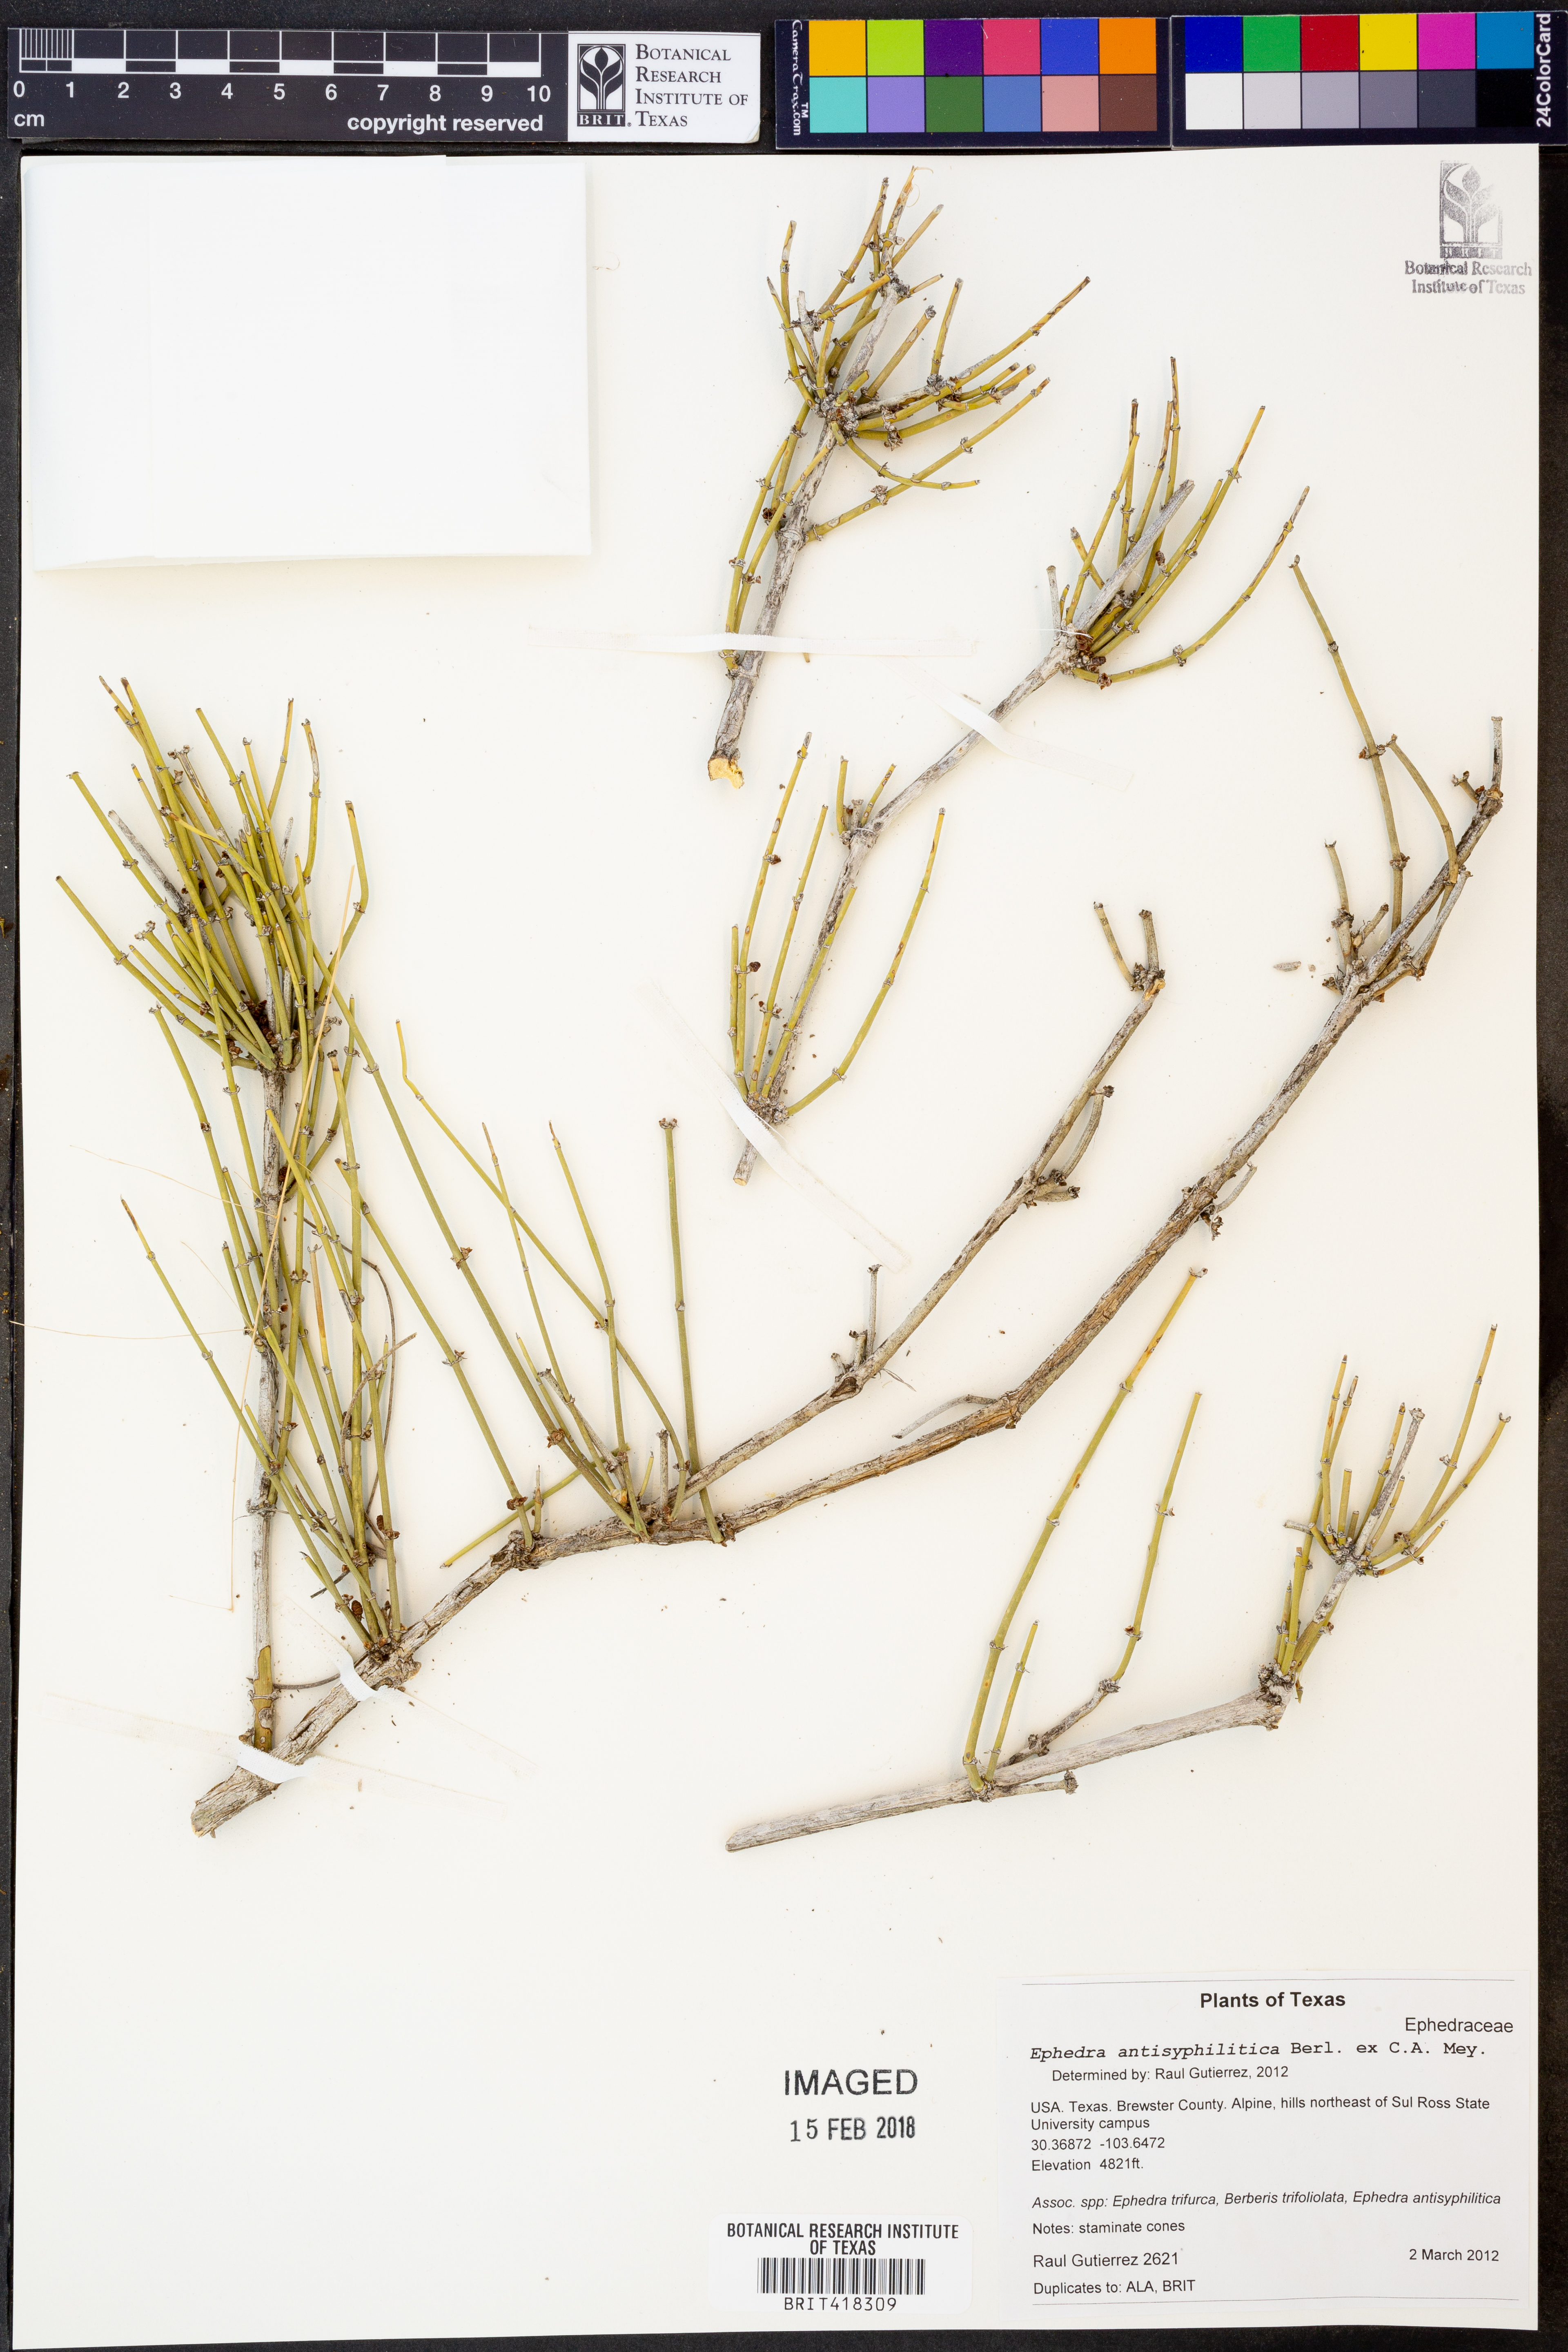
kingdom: Plantae
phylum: Tracheophyta
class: Gnetopsida
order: Ephedrales
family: Ephedraceae
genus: Ephedra
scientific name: Ephedra antisyphilitica
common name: Clipweed
